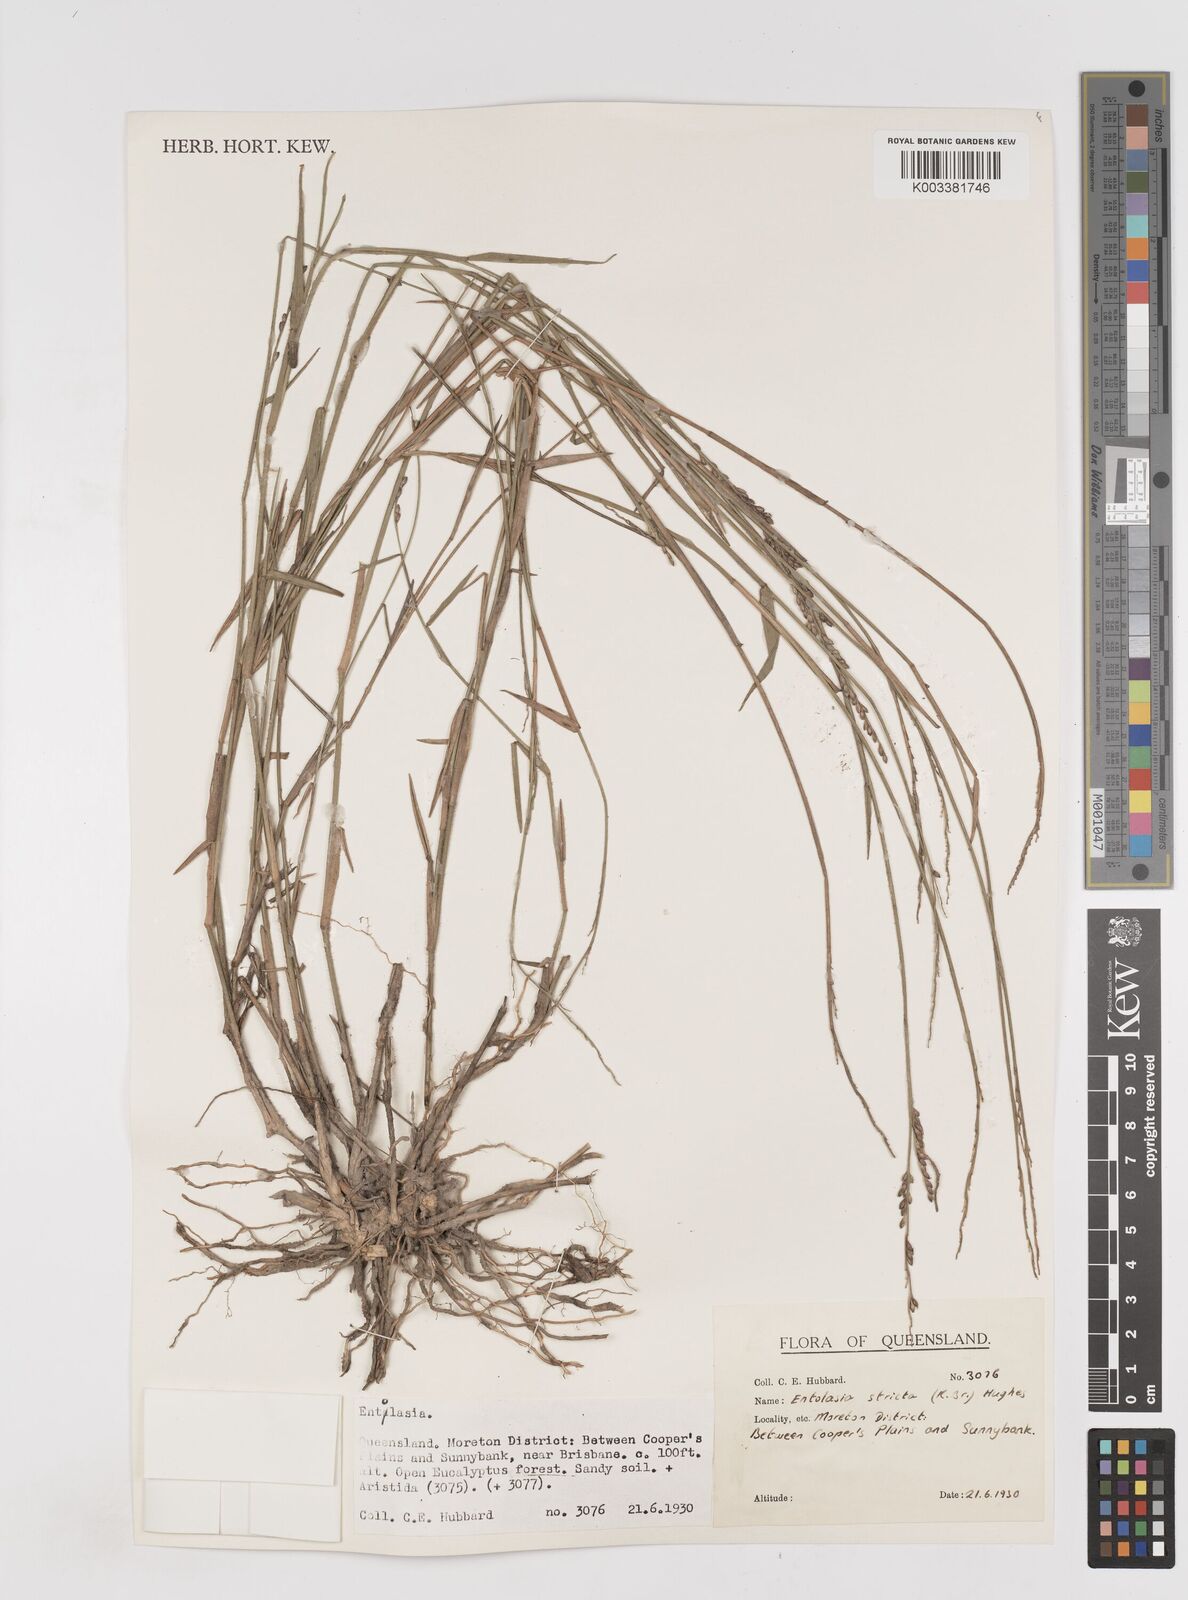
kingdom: Plantae
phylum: Tracheophyta
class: Liliopsida
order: Poales
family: Poaceae
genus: Entolasia
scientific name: Entolasia stricta
